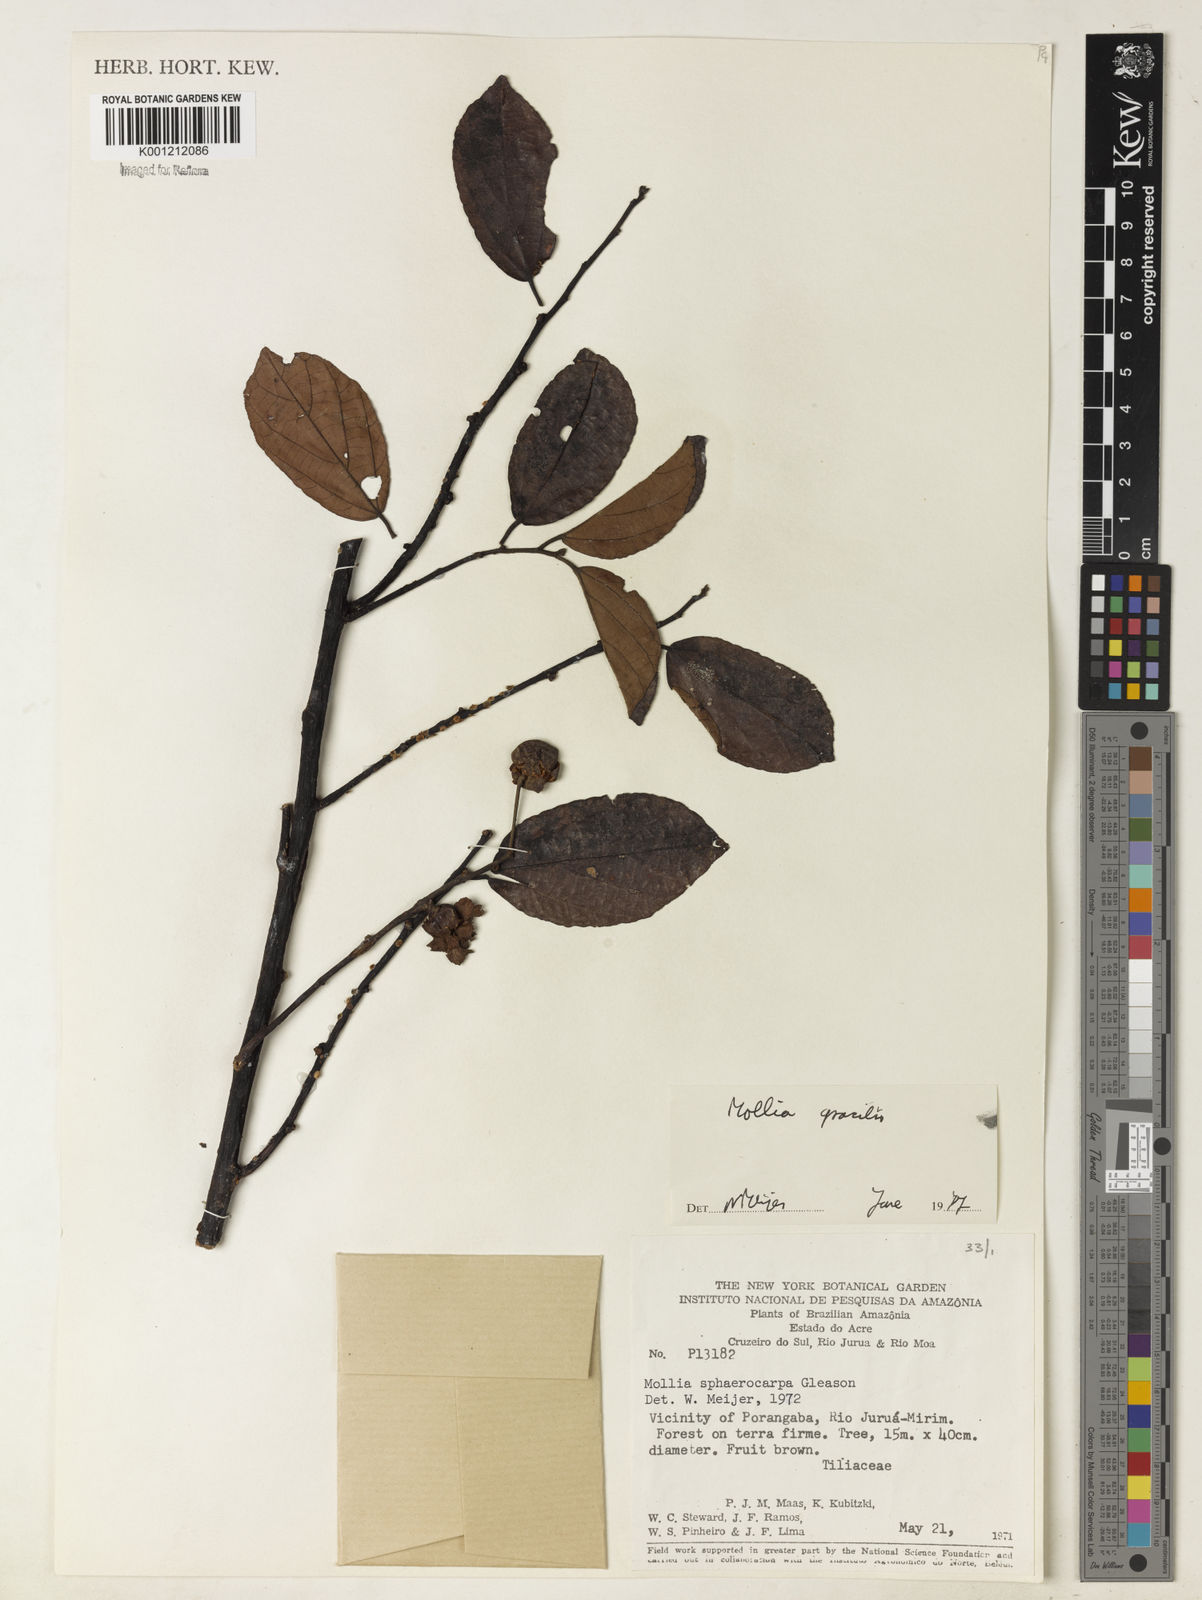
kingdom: Plantae
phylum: Tracheophyta
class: Magnoliopsida
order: Malvales
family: Malvaceae
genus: Mollia
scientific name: Mollia gracilis
